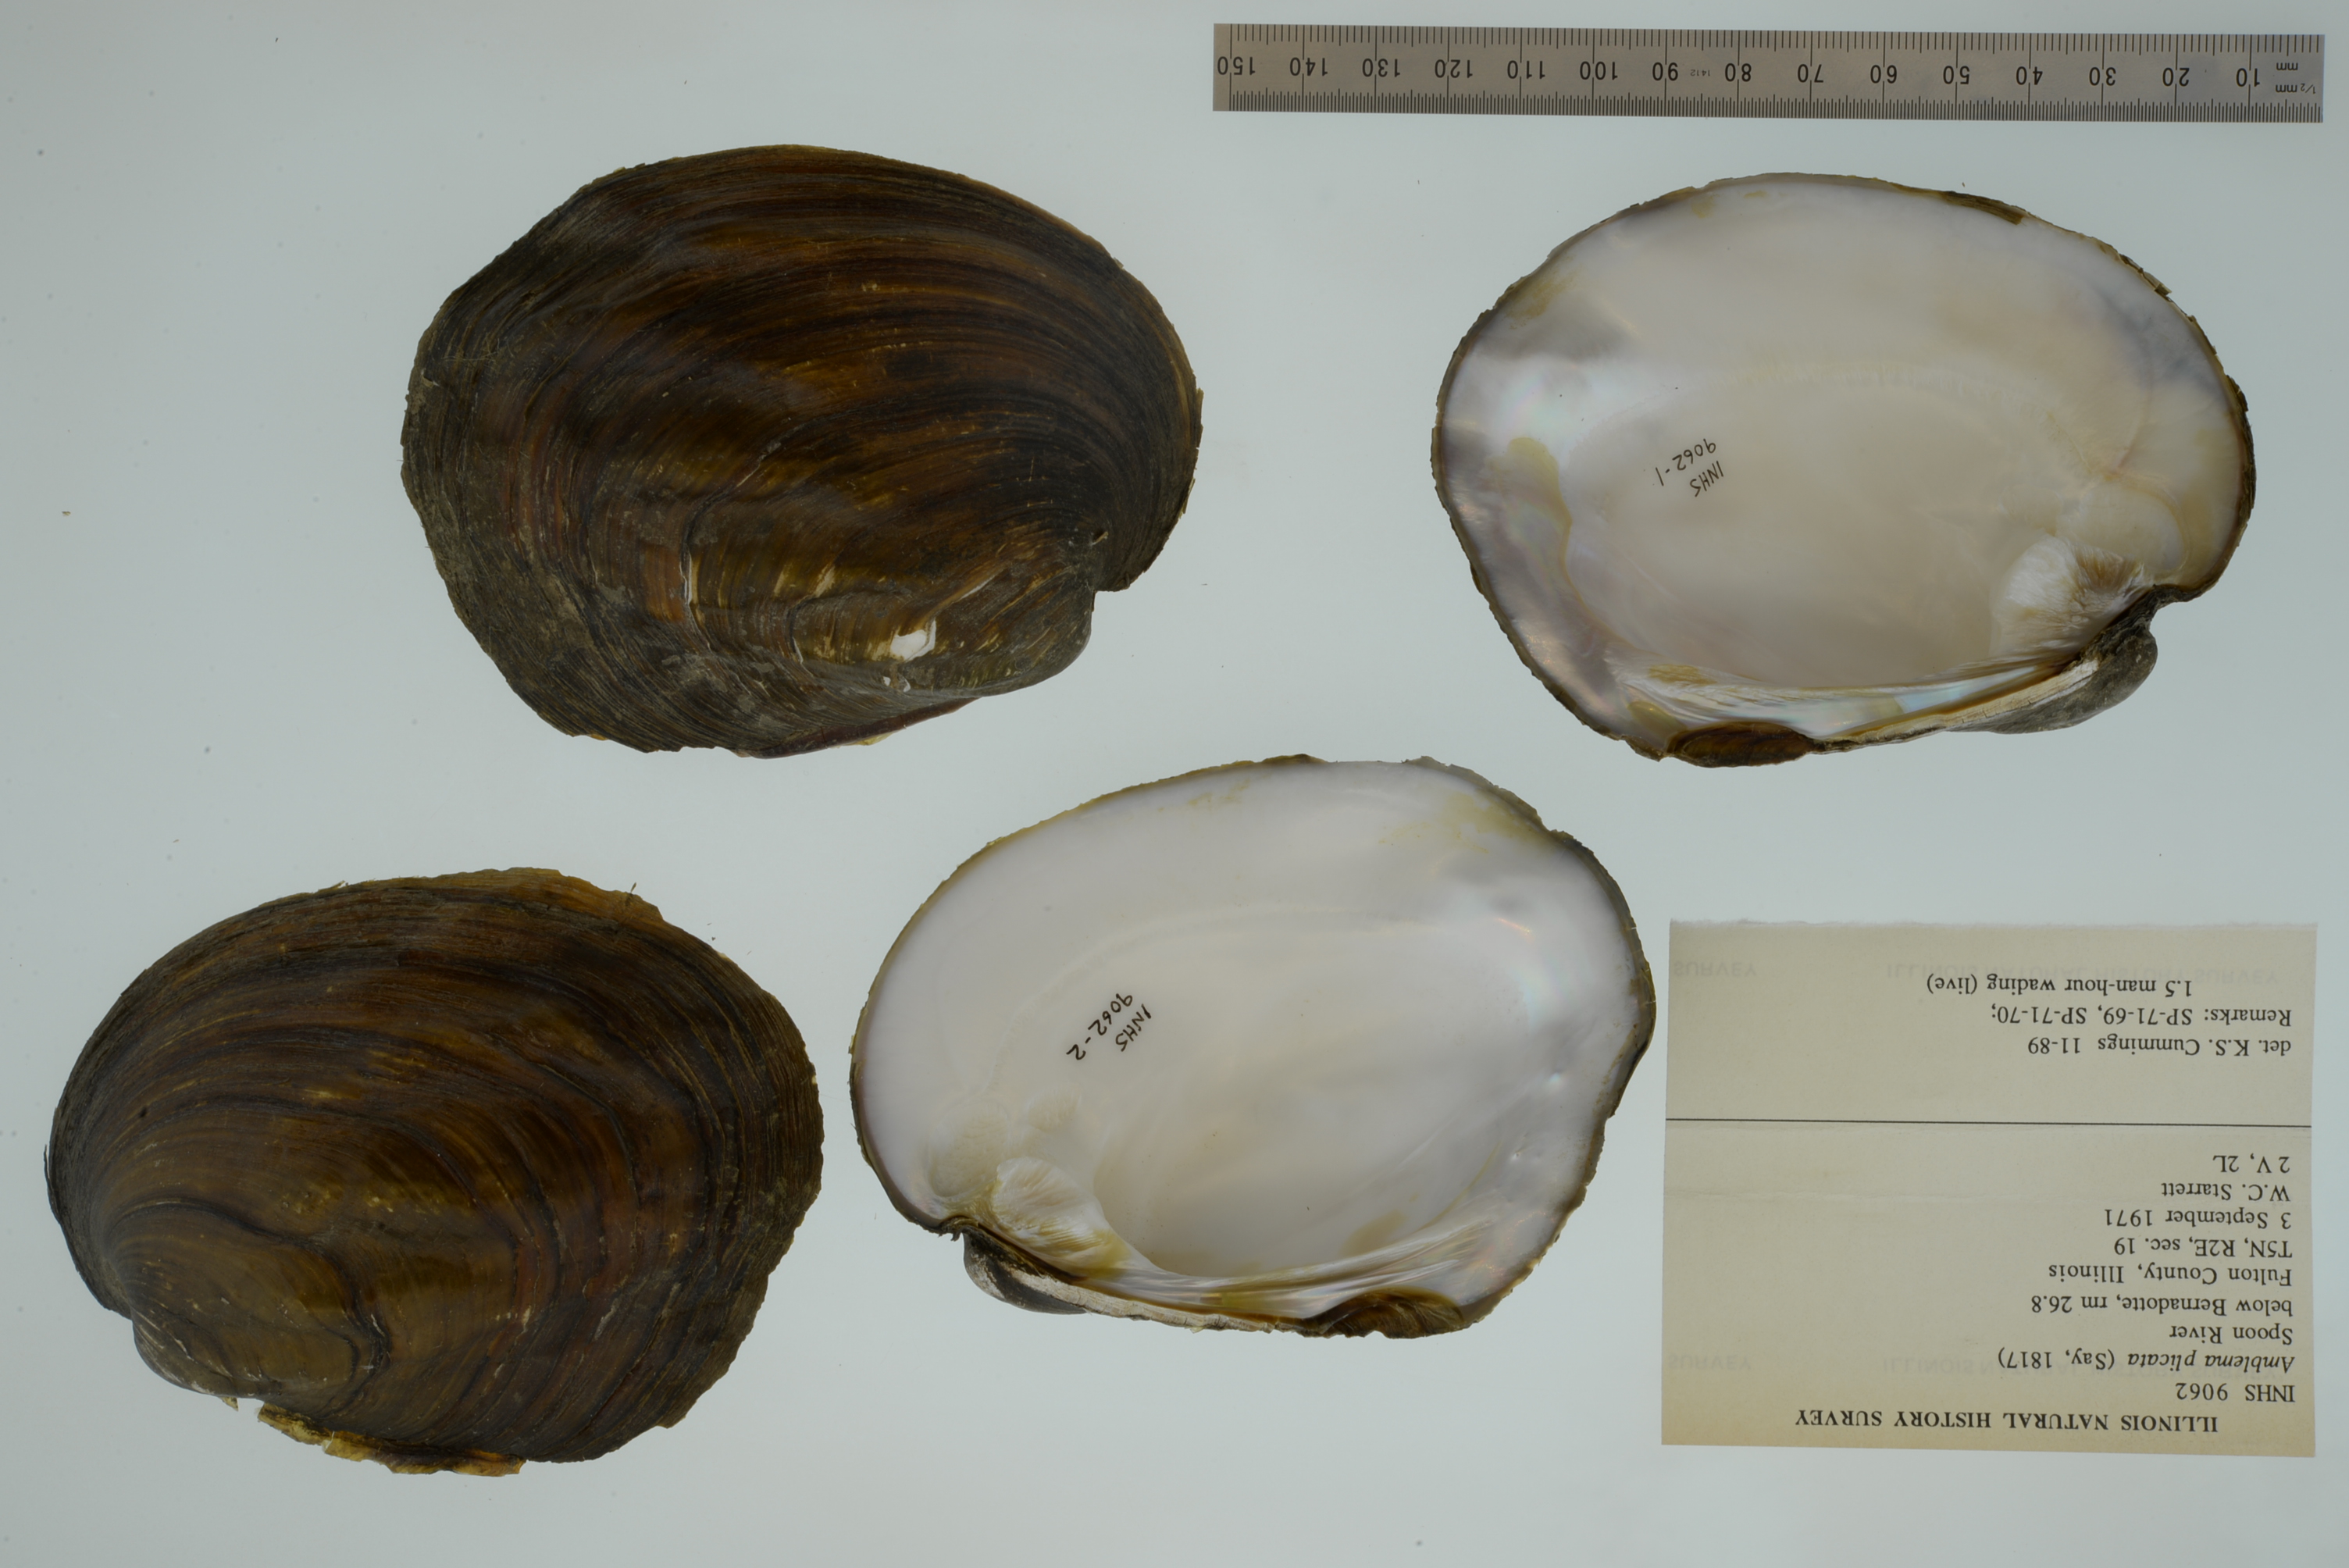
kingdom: Animalia
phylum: Mollusca
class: Bivalvia
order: Unionida
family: Unionidae
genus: Amblema
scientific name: Amblema plicata
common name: Threeridge
